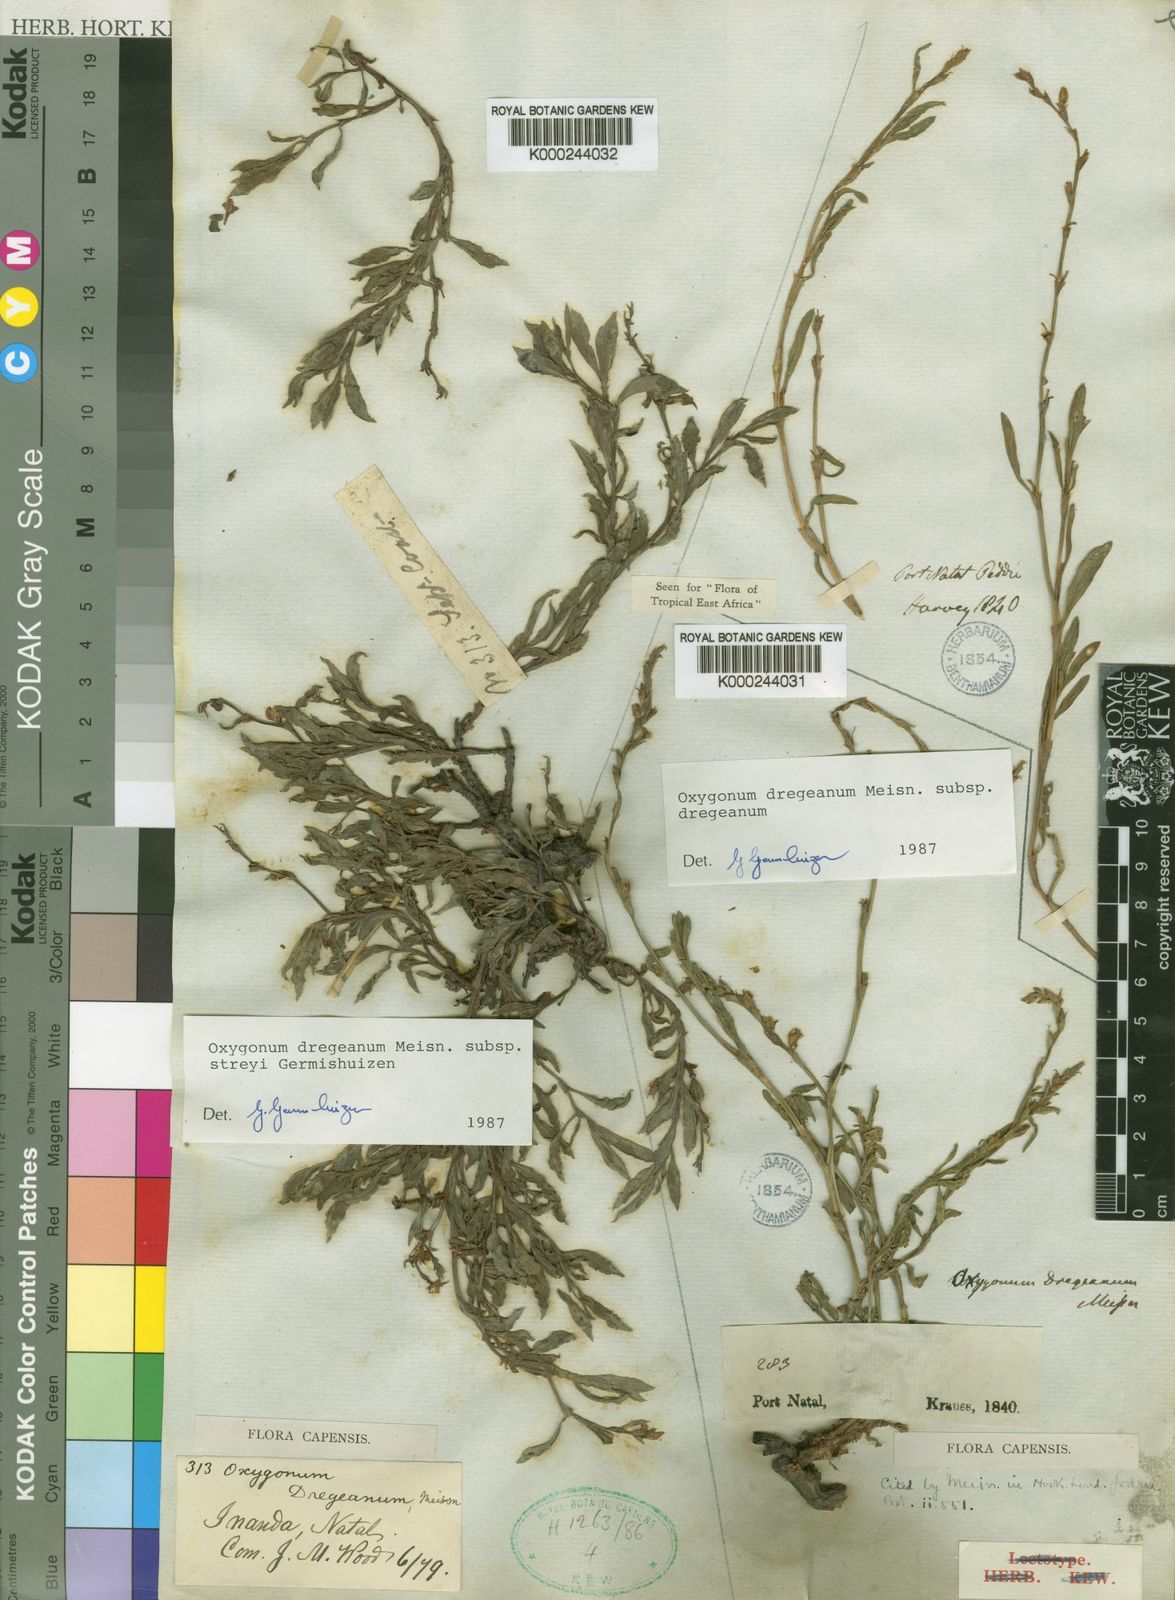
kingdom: Plantae
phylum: Tracheophyta
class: Magnoliopsida
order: Caryophyllales
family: Polygonaceae
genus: Oxygonum
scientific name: Oxygonum dregeanum
